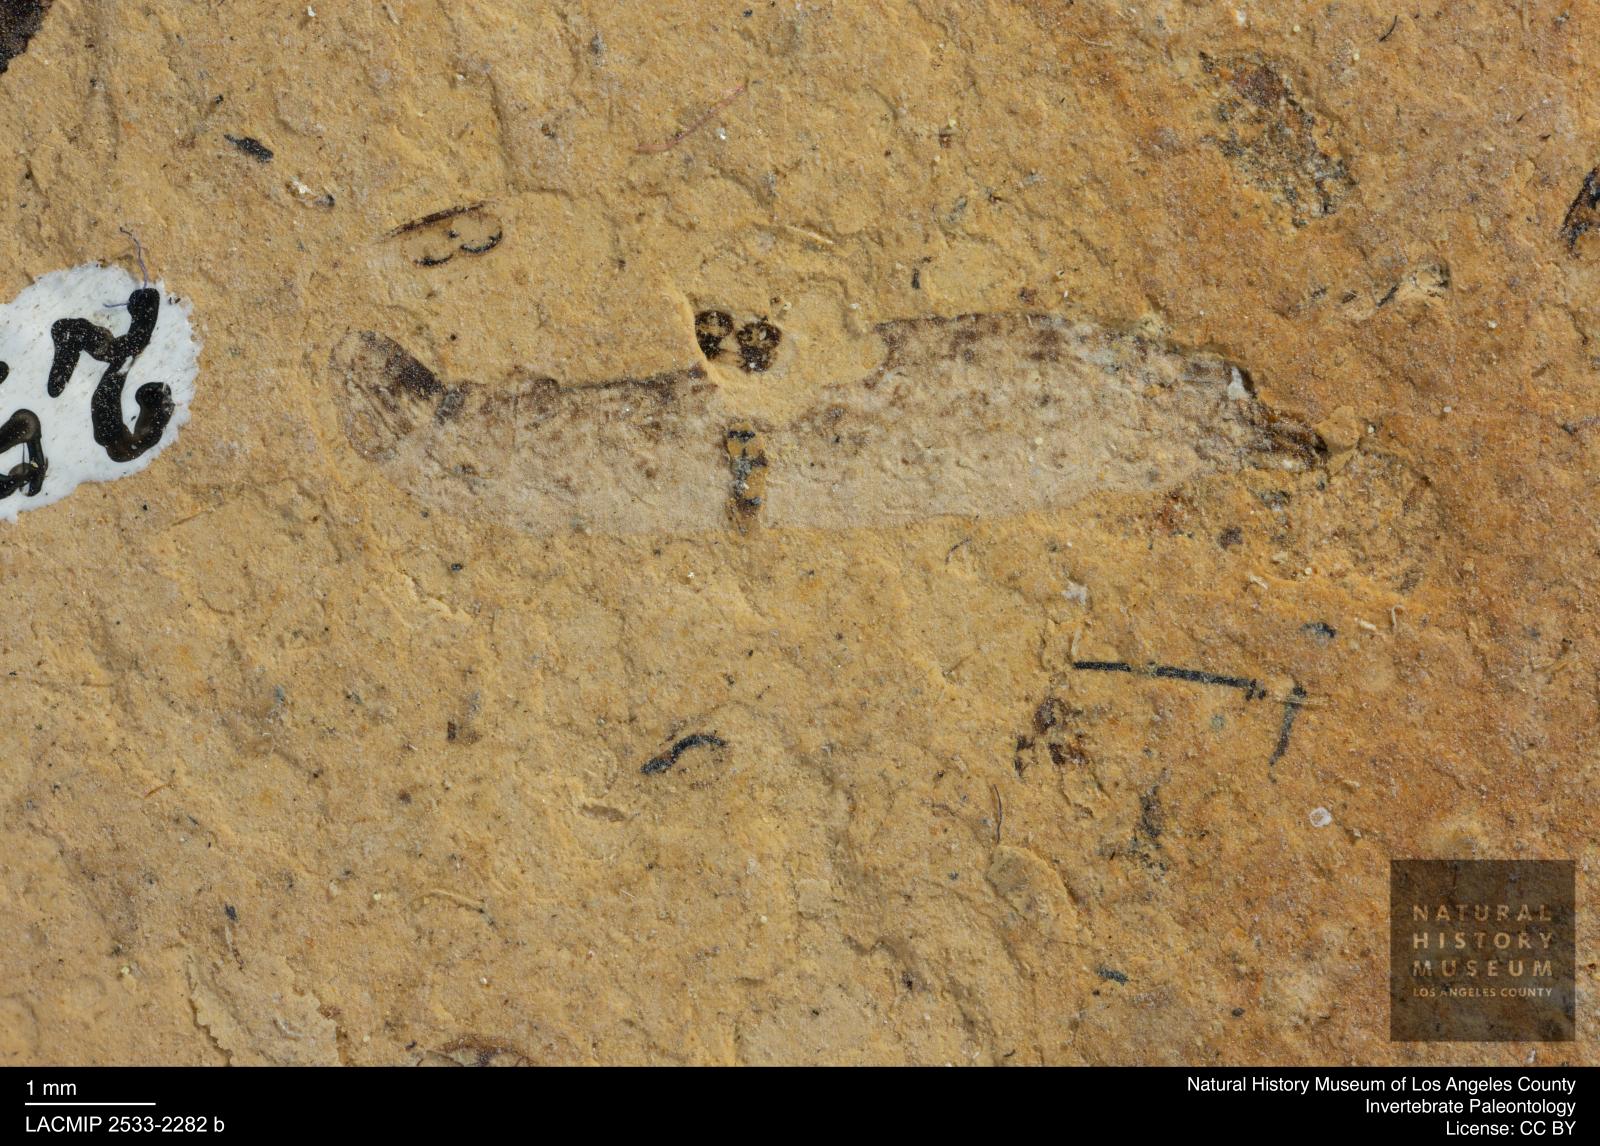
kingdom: Animalia
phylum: Arthropoda
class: Insecta
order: Diptera
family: Stratiomyidae
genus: Odontomyia
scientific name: Odontomyia
